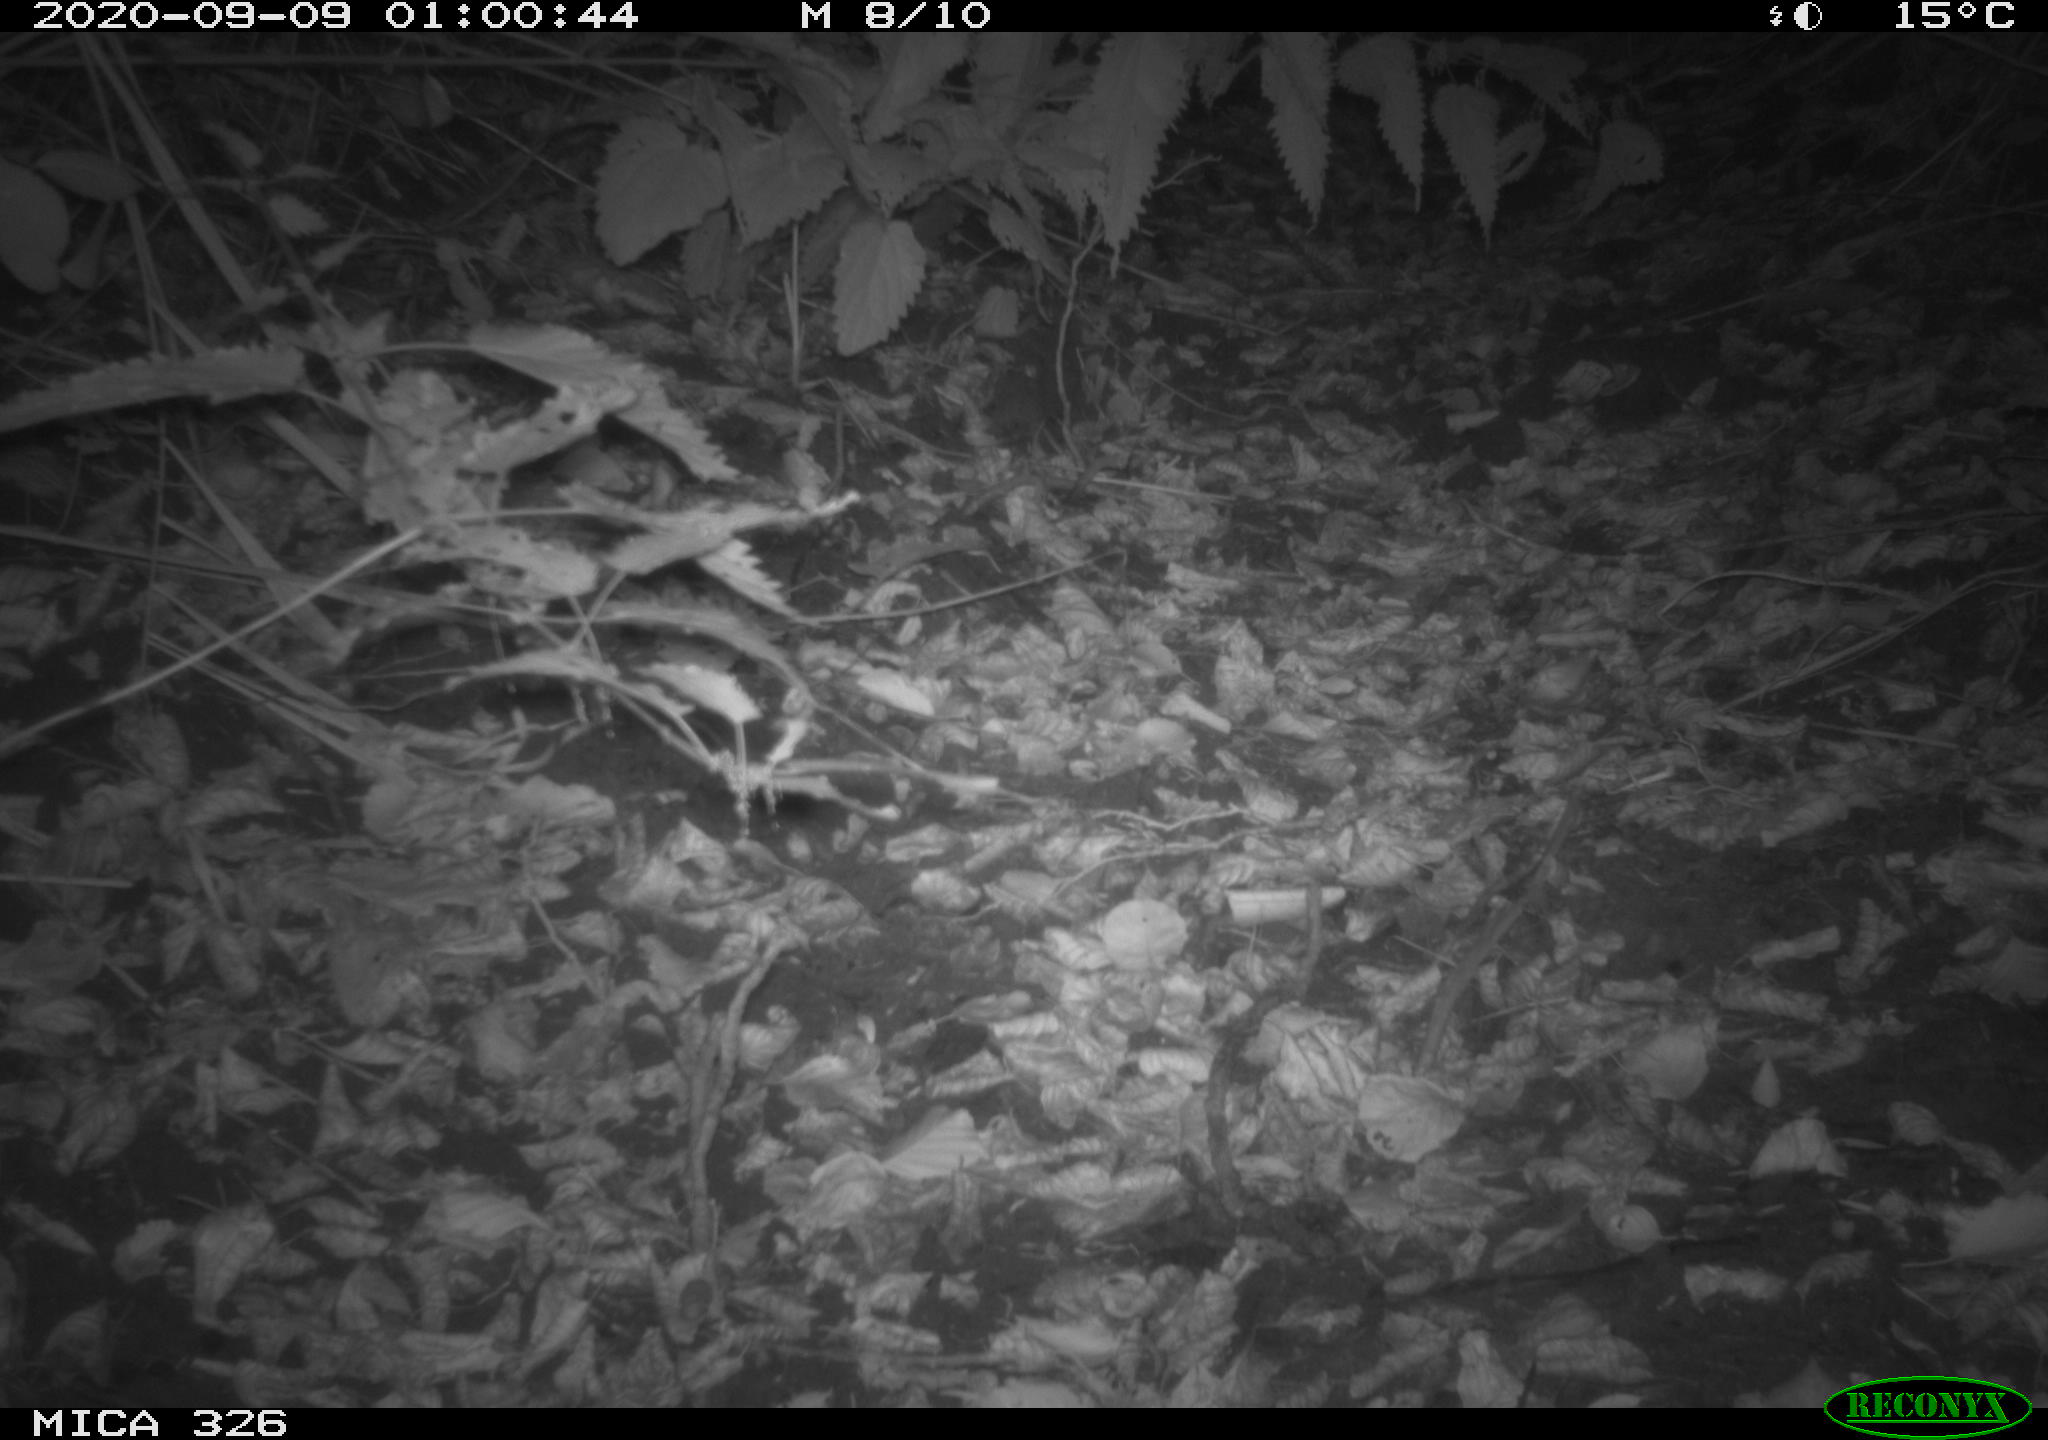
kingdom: Animalia
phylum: Chordata
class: Mammalia
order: Carnivora
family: Mustelidae
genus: Lutra
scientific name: Lutra lutra
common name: European otter
